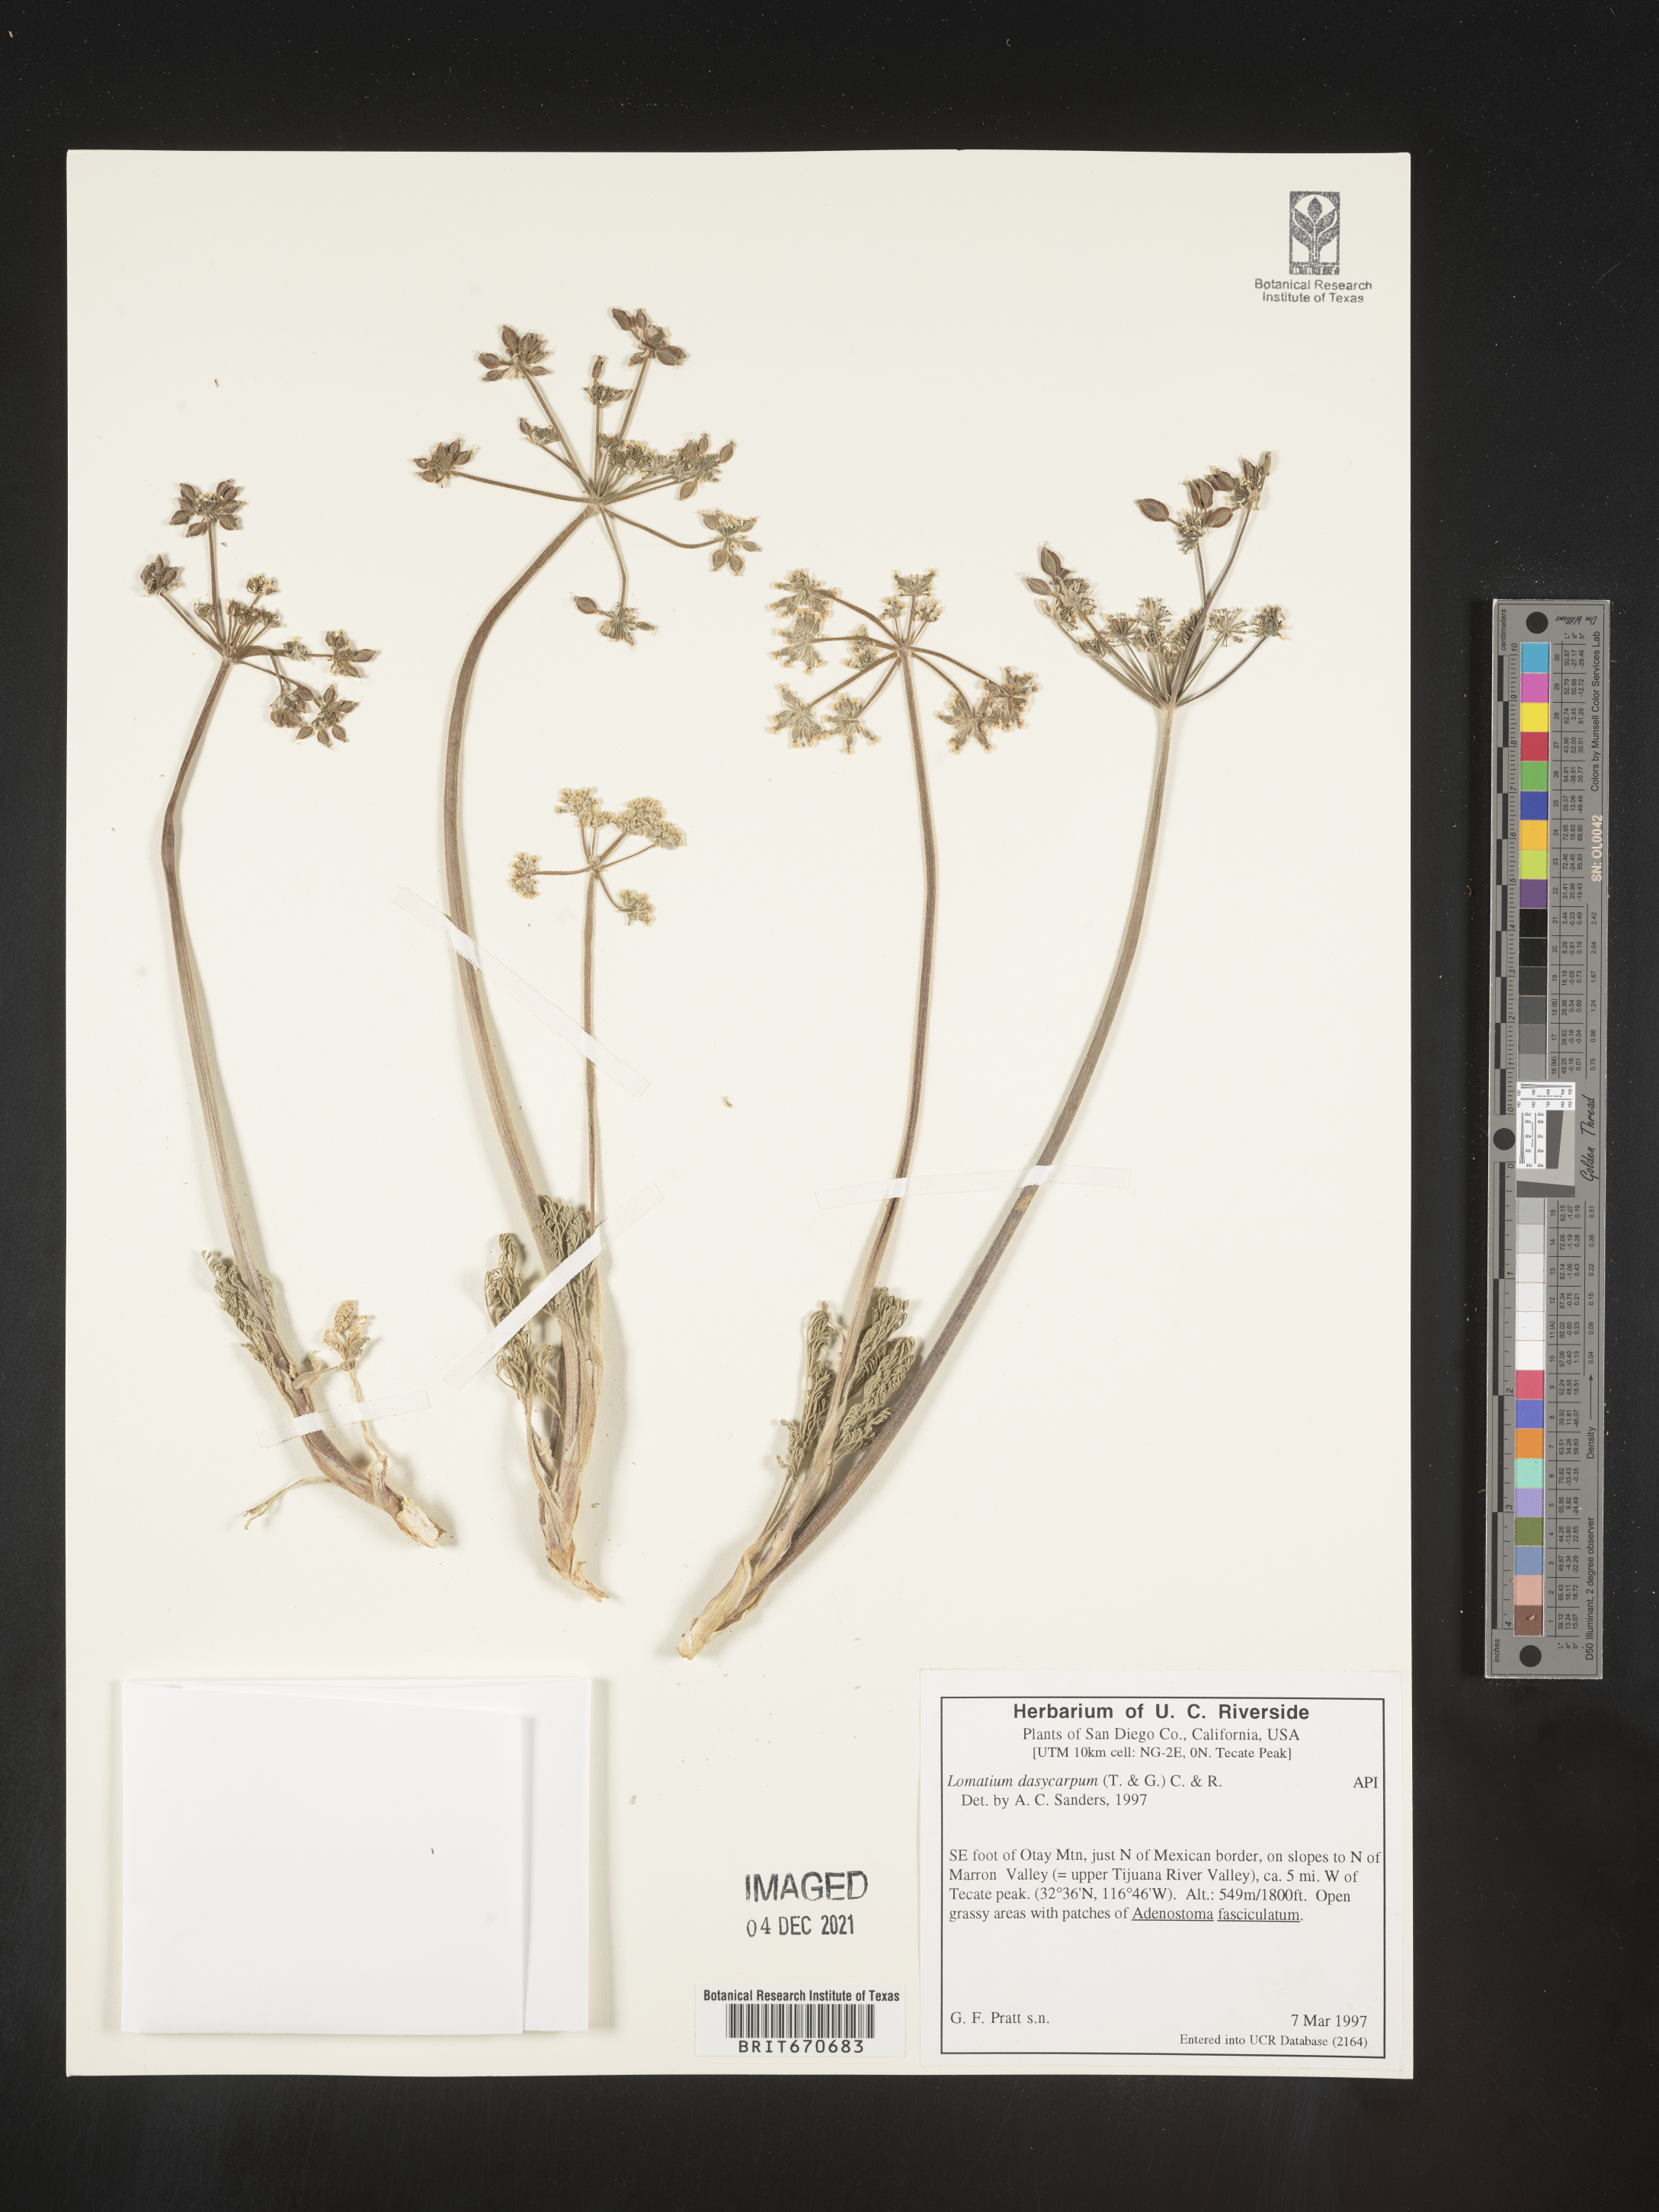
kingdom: Plantae
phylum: Tracheophyta
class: Magnoliopsida
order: Apiales
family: Apiaceae
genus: Lomatium
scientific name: Lomatium dasycarpum
